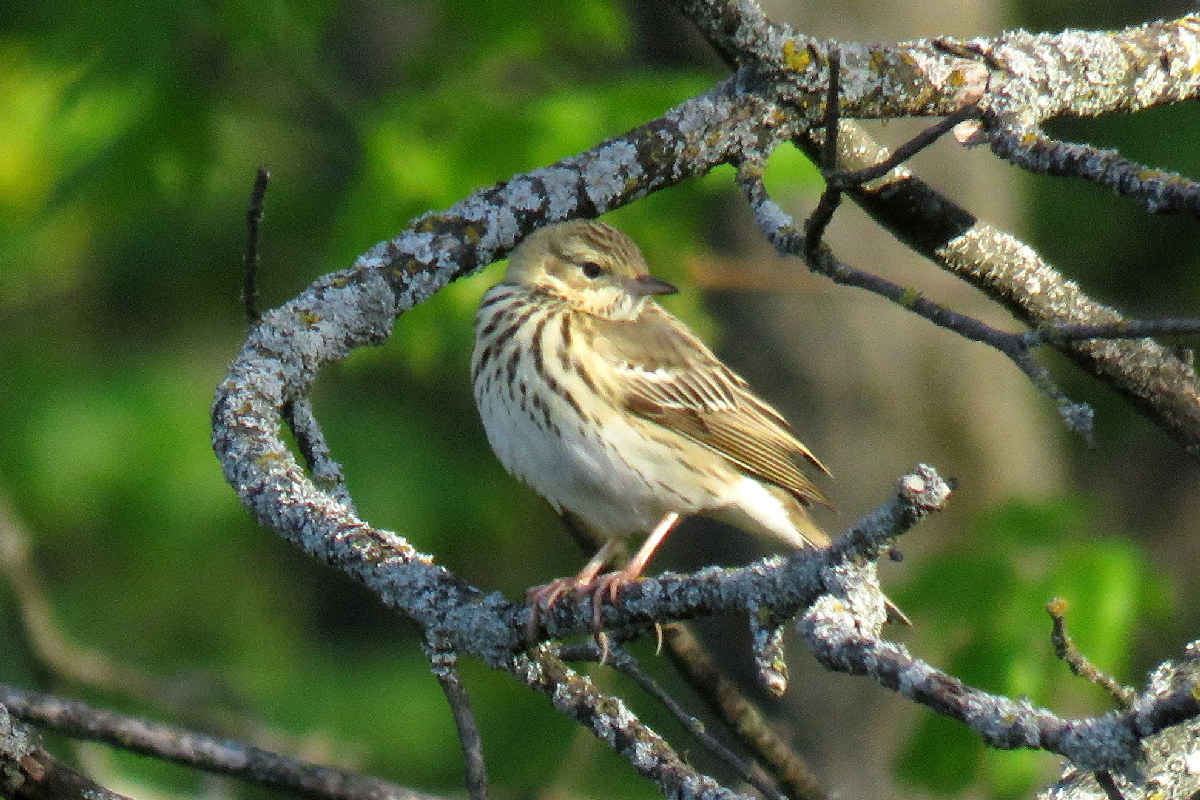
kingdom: Animalia
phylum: Chordata
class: Aves
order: Passeriformes
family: Motacillidae
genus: Anthus
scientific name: Anthus trivialis
